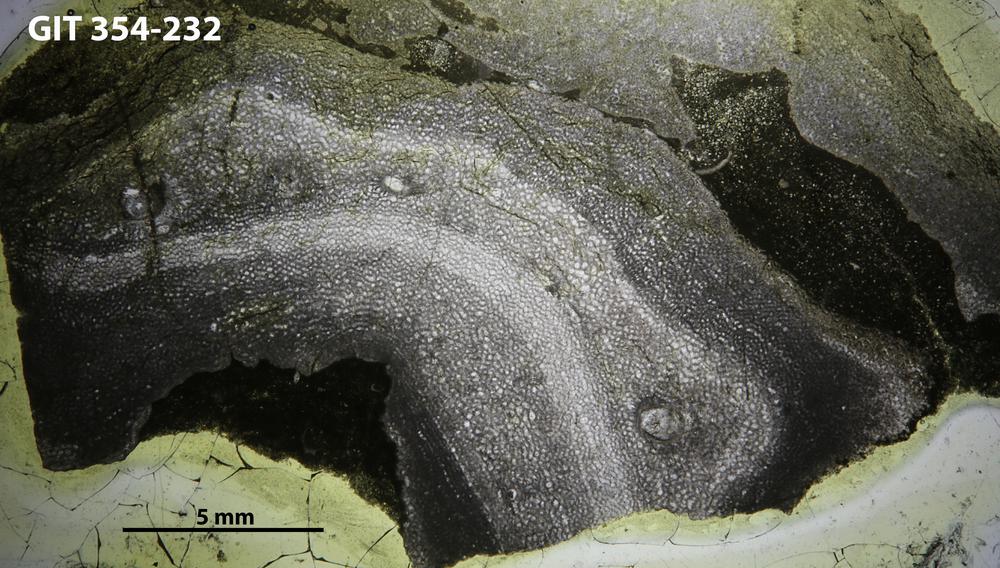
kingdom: Animalia
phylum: Porifera
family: Ecclimadictyidae
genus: Ecclimadictyon
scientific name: Ecclimadictyon Clathrodictyon microvesiculosum
